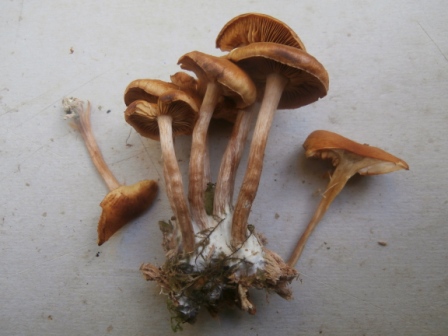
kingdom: Fungi
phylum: Basidiomycota
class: Agaricomycetes
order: Agaricales
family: Hymenogastraceae
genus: Gymnopilus
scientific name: Gymnopilus penetrans
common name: plettet flammehat
